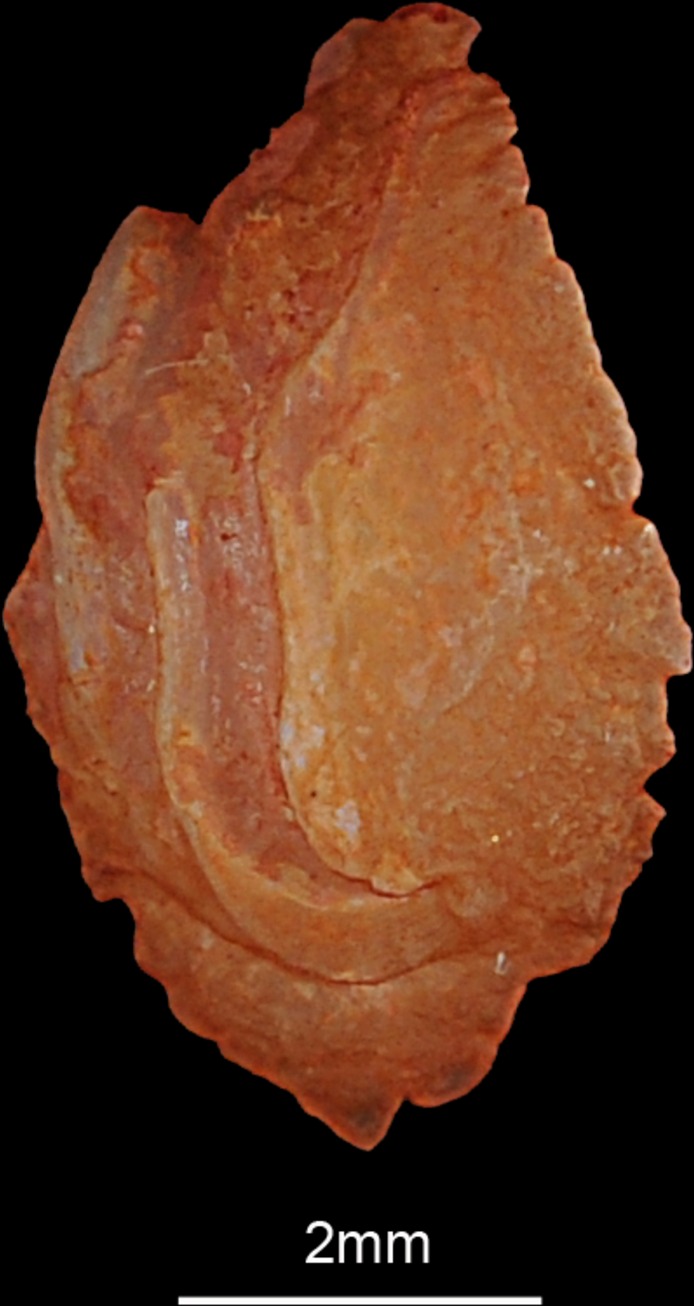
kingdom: Animalia
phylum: Chordata
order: Perciformes
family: Gerreidae
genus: Gerres
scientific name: Gerres oyena
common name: Common silver-biddy
